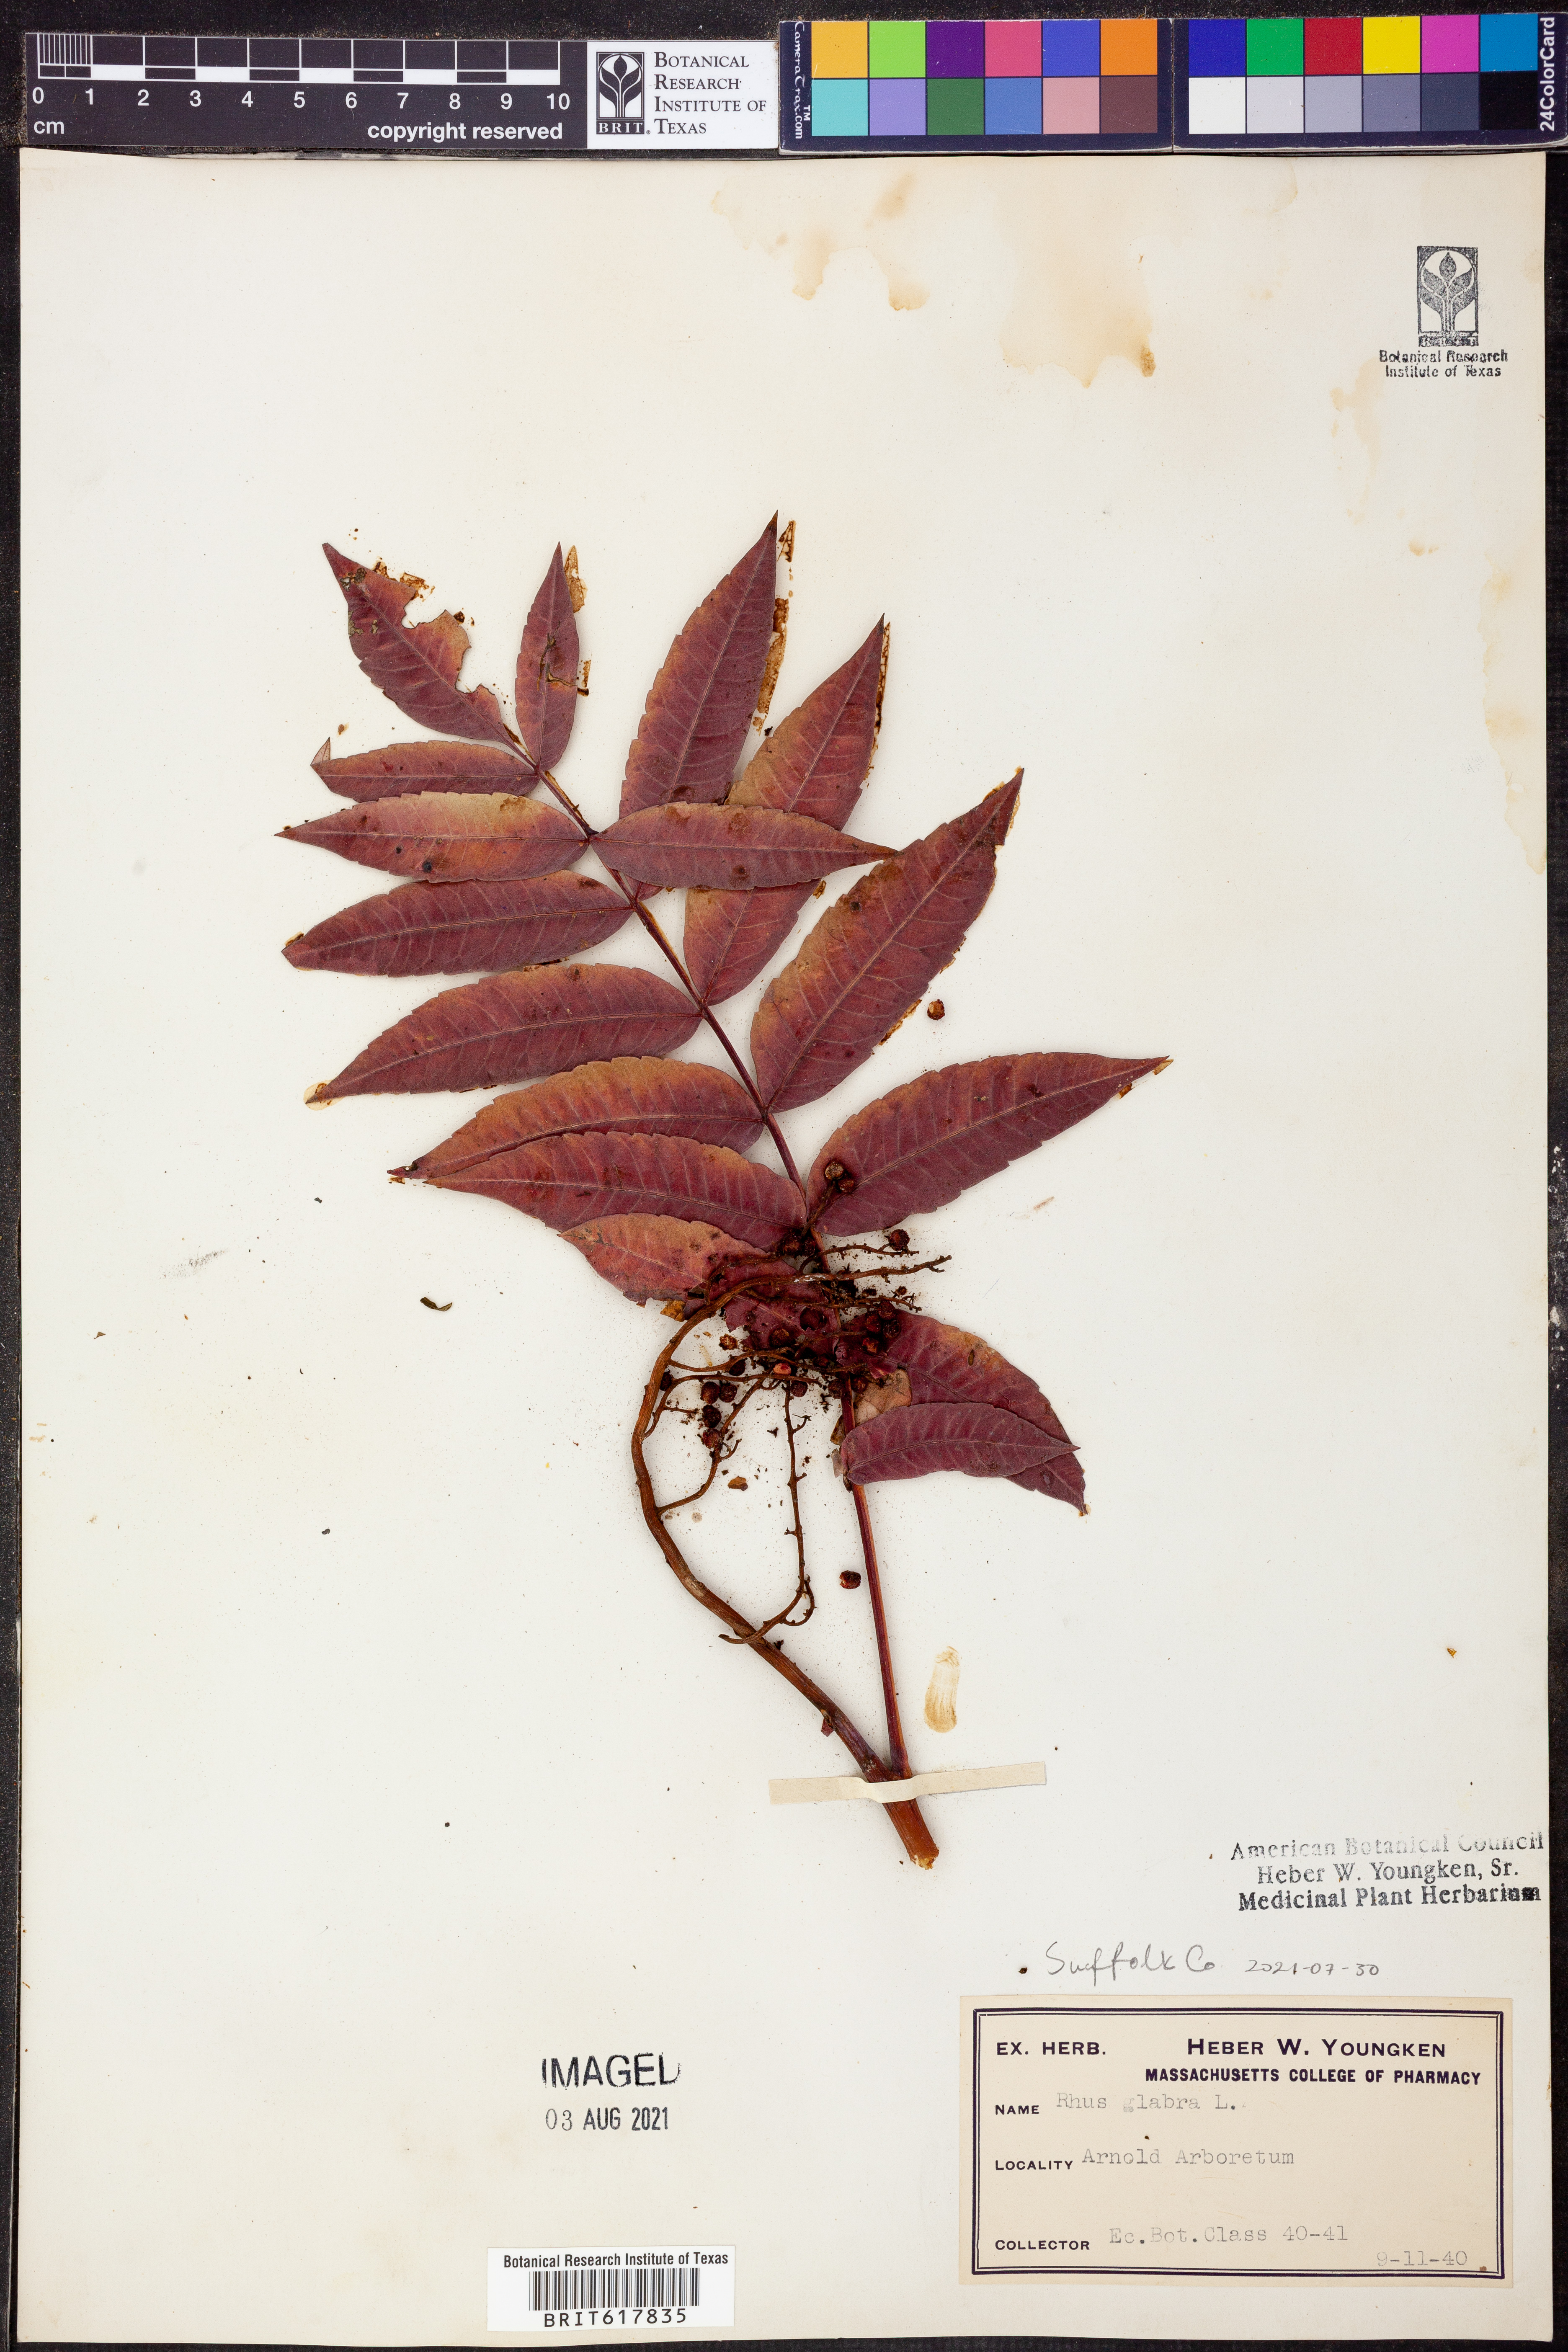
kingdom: Plantae
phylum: Tracheophyta
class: Magnoliopsida
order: Sapindales
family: Anacardiaceae
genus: Rhus
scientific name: Rhus glabra
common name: Scarlet sumac
